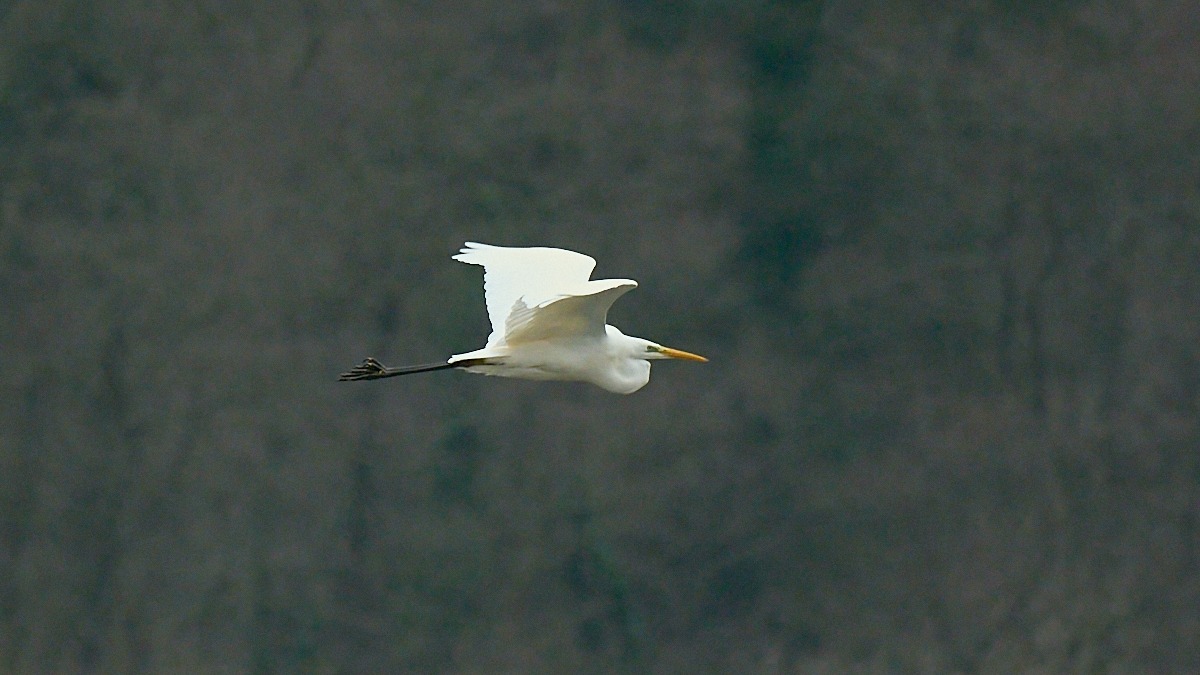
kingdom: Animalia
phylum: Chordata
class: Aves
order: Pelecaniformes
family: Ardeidae
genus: Ardea
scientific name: Ardea alba
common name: Sølvhejre
